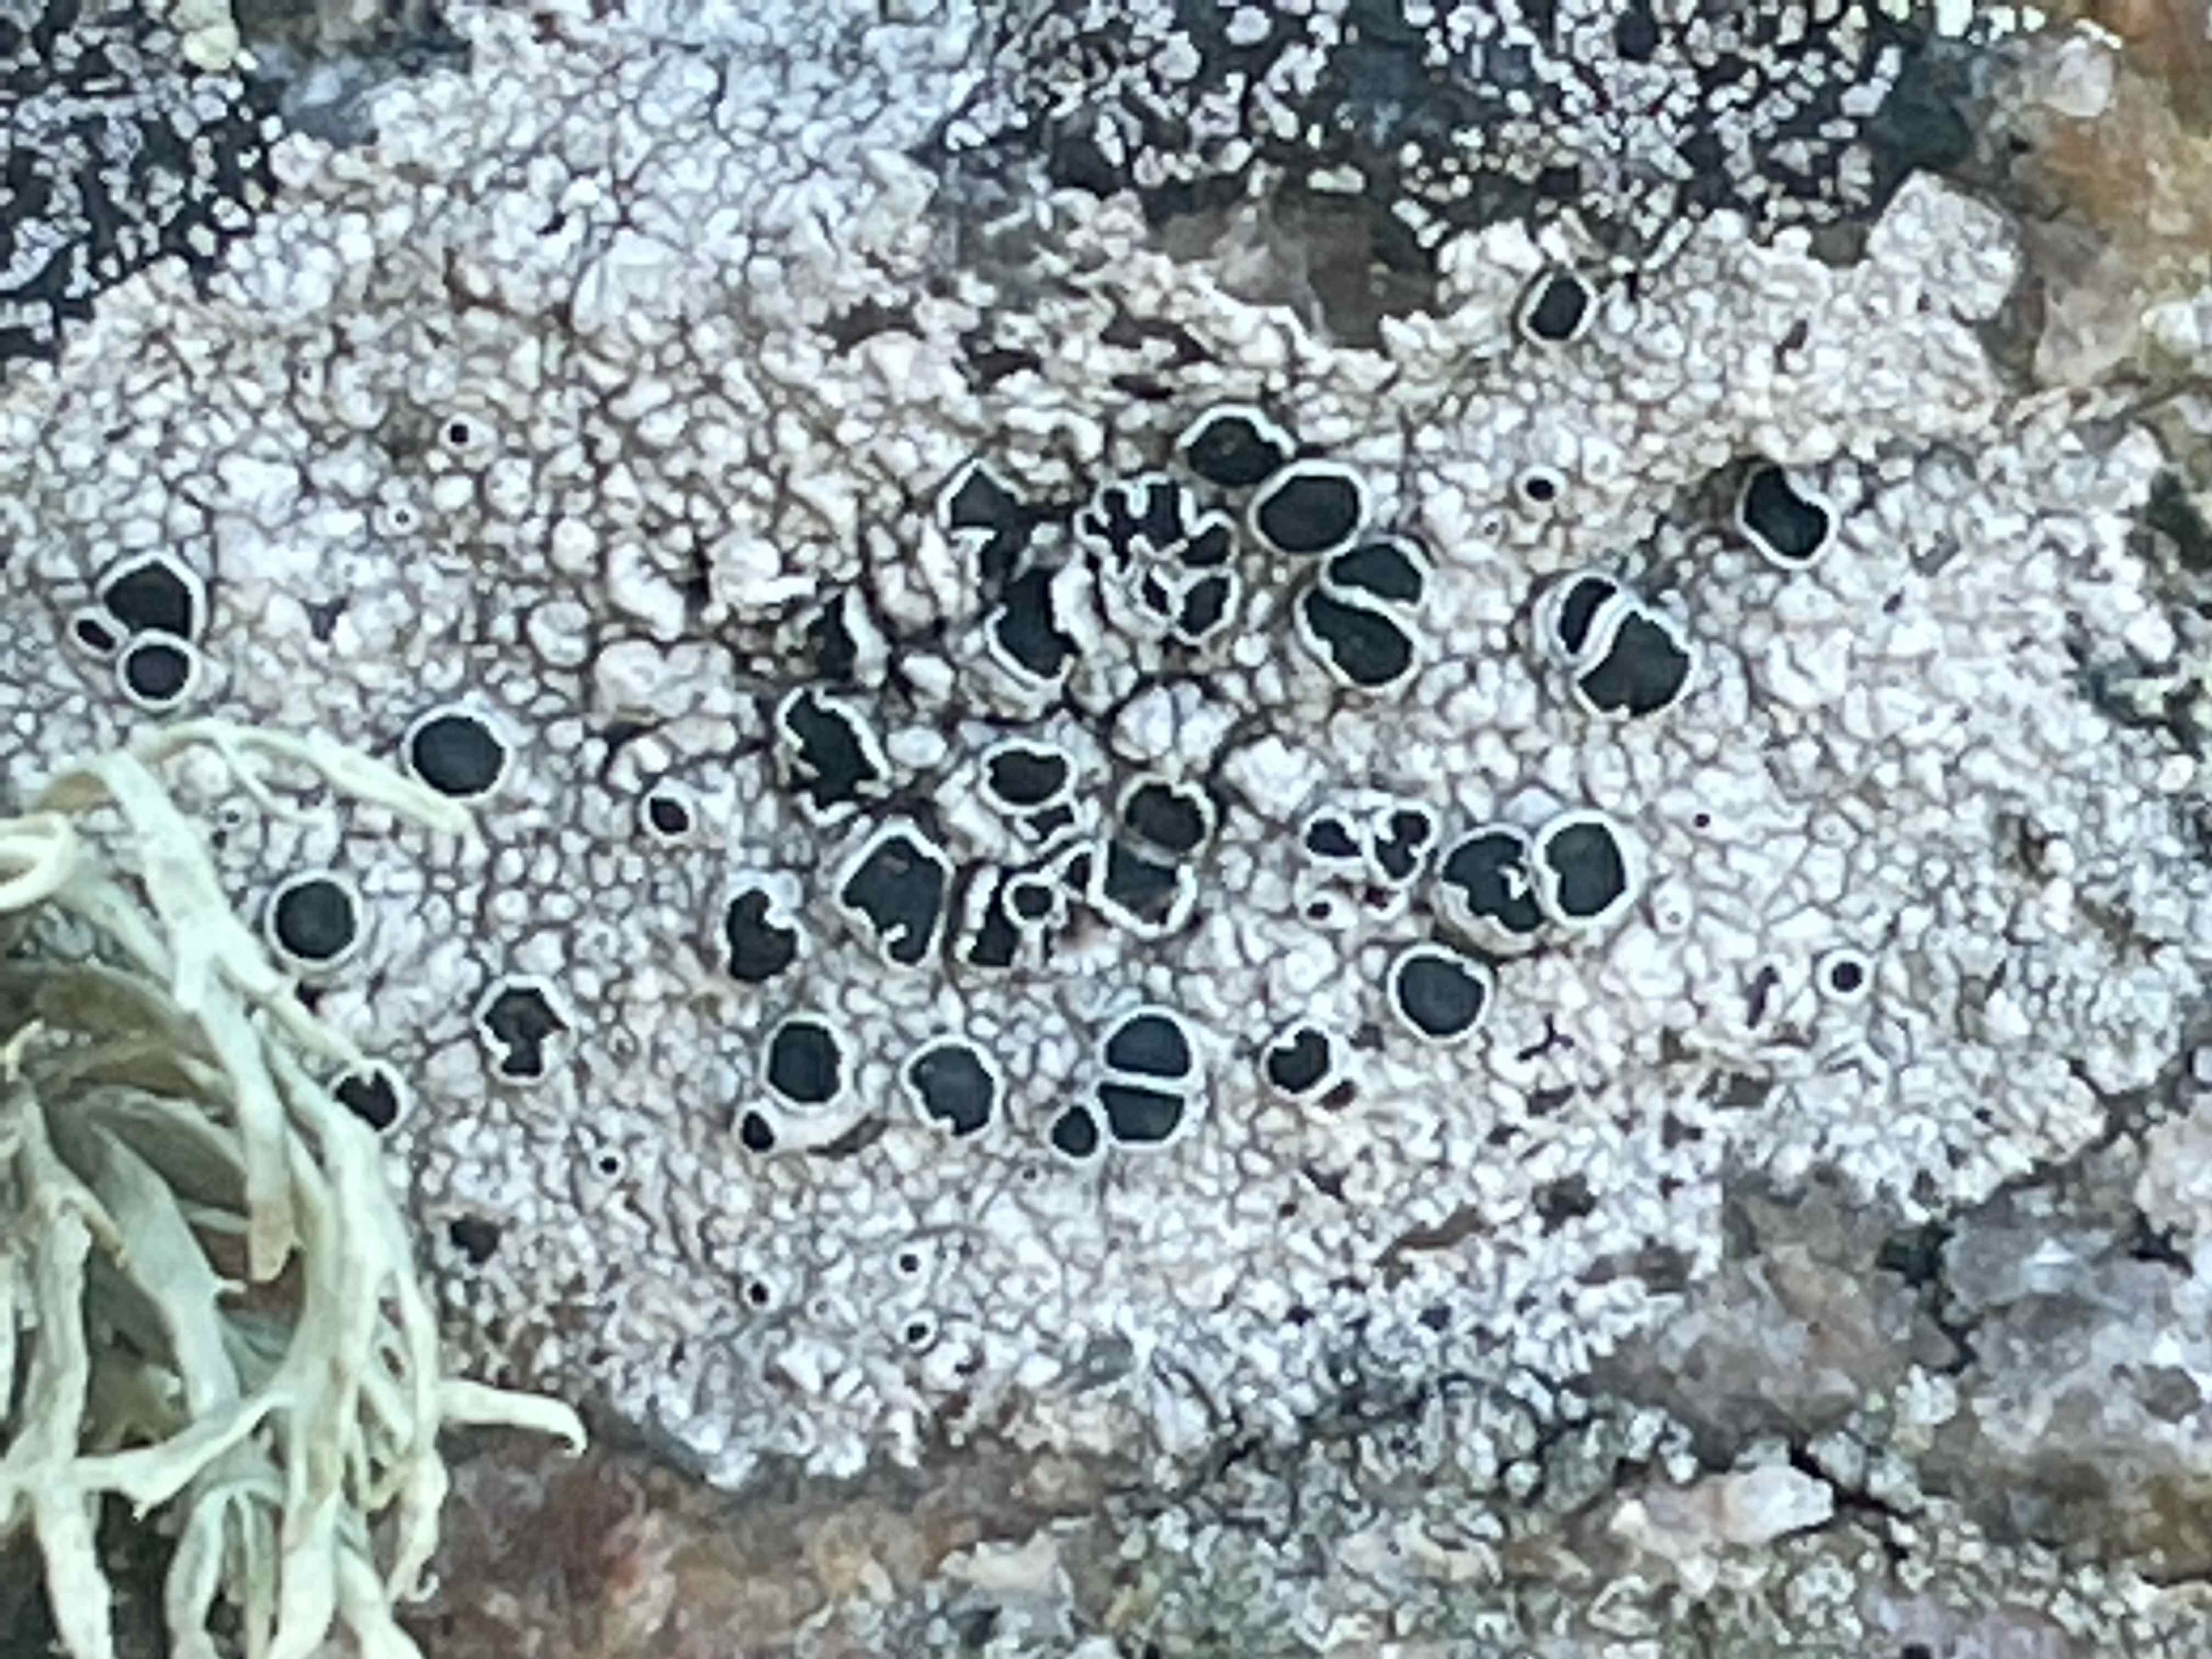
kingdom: Fungi
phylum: Ascomycota
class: Lecanoromycetes
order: Lecanorales
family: Tephromelataceae
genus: Tephromela
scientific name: Tephromela atra
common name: sortfrugtet kantskivelav
